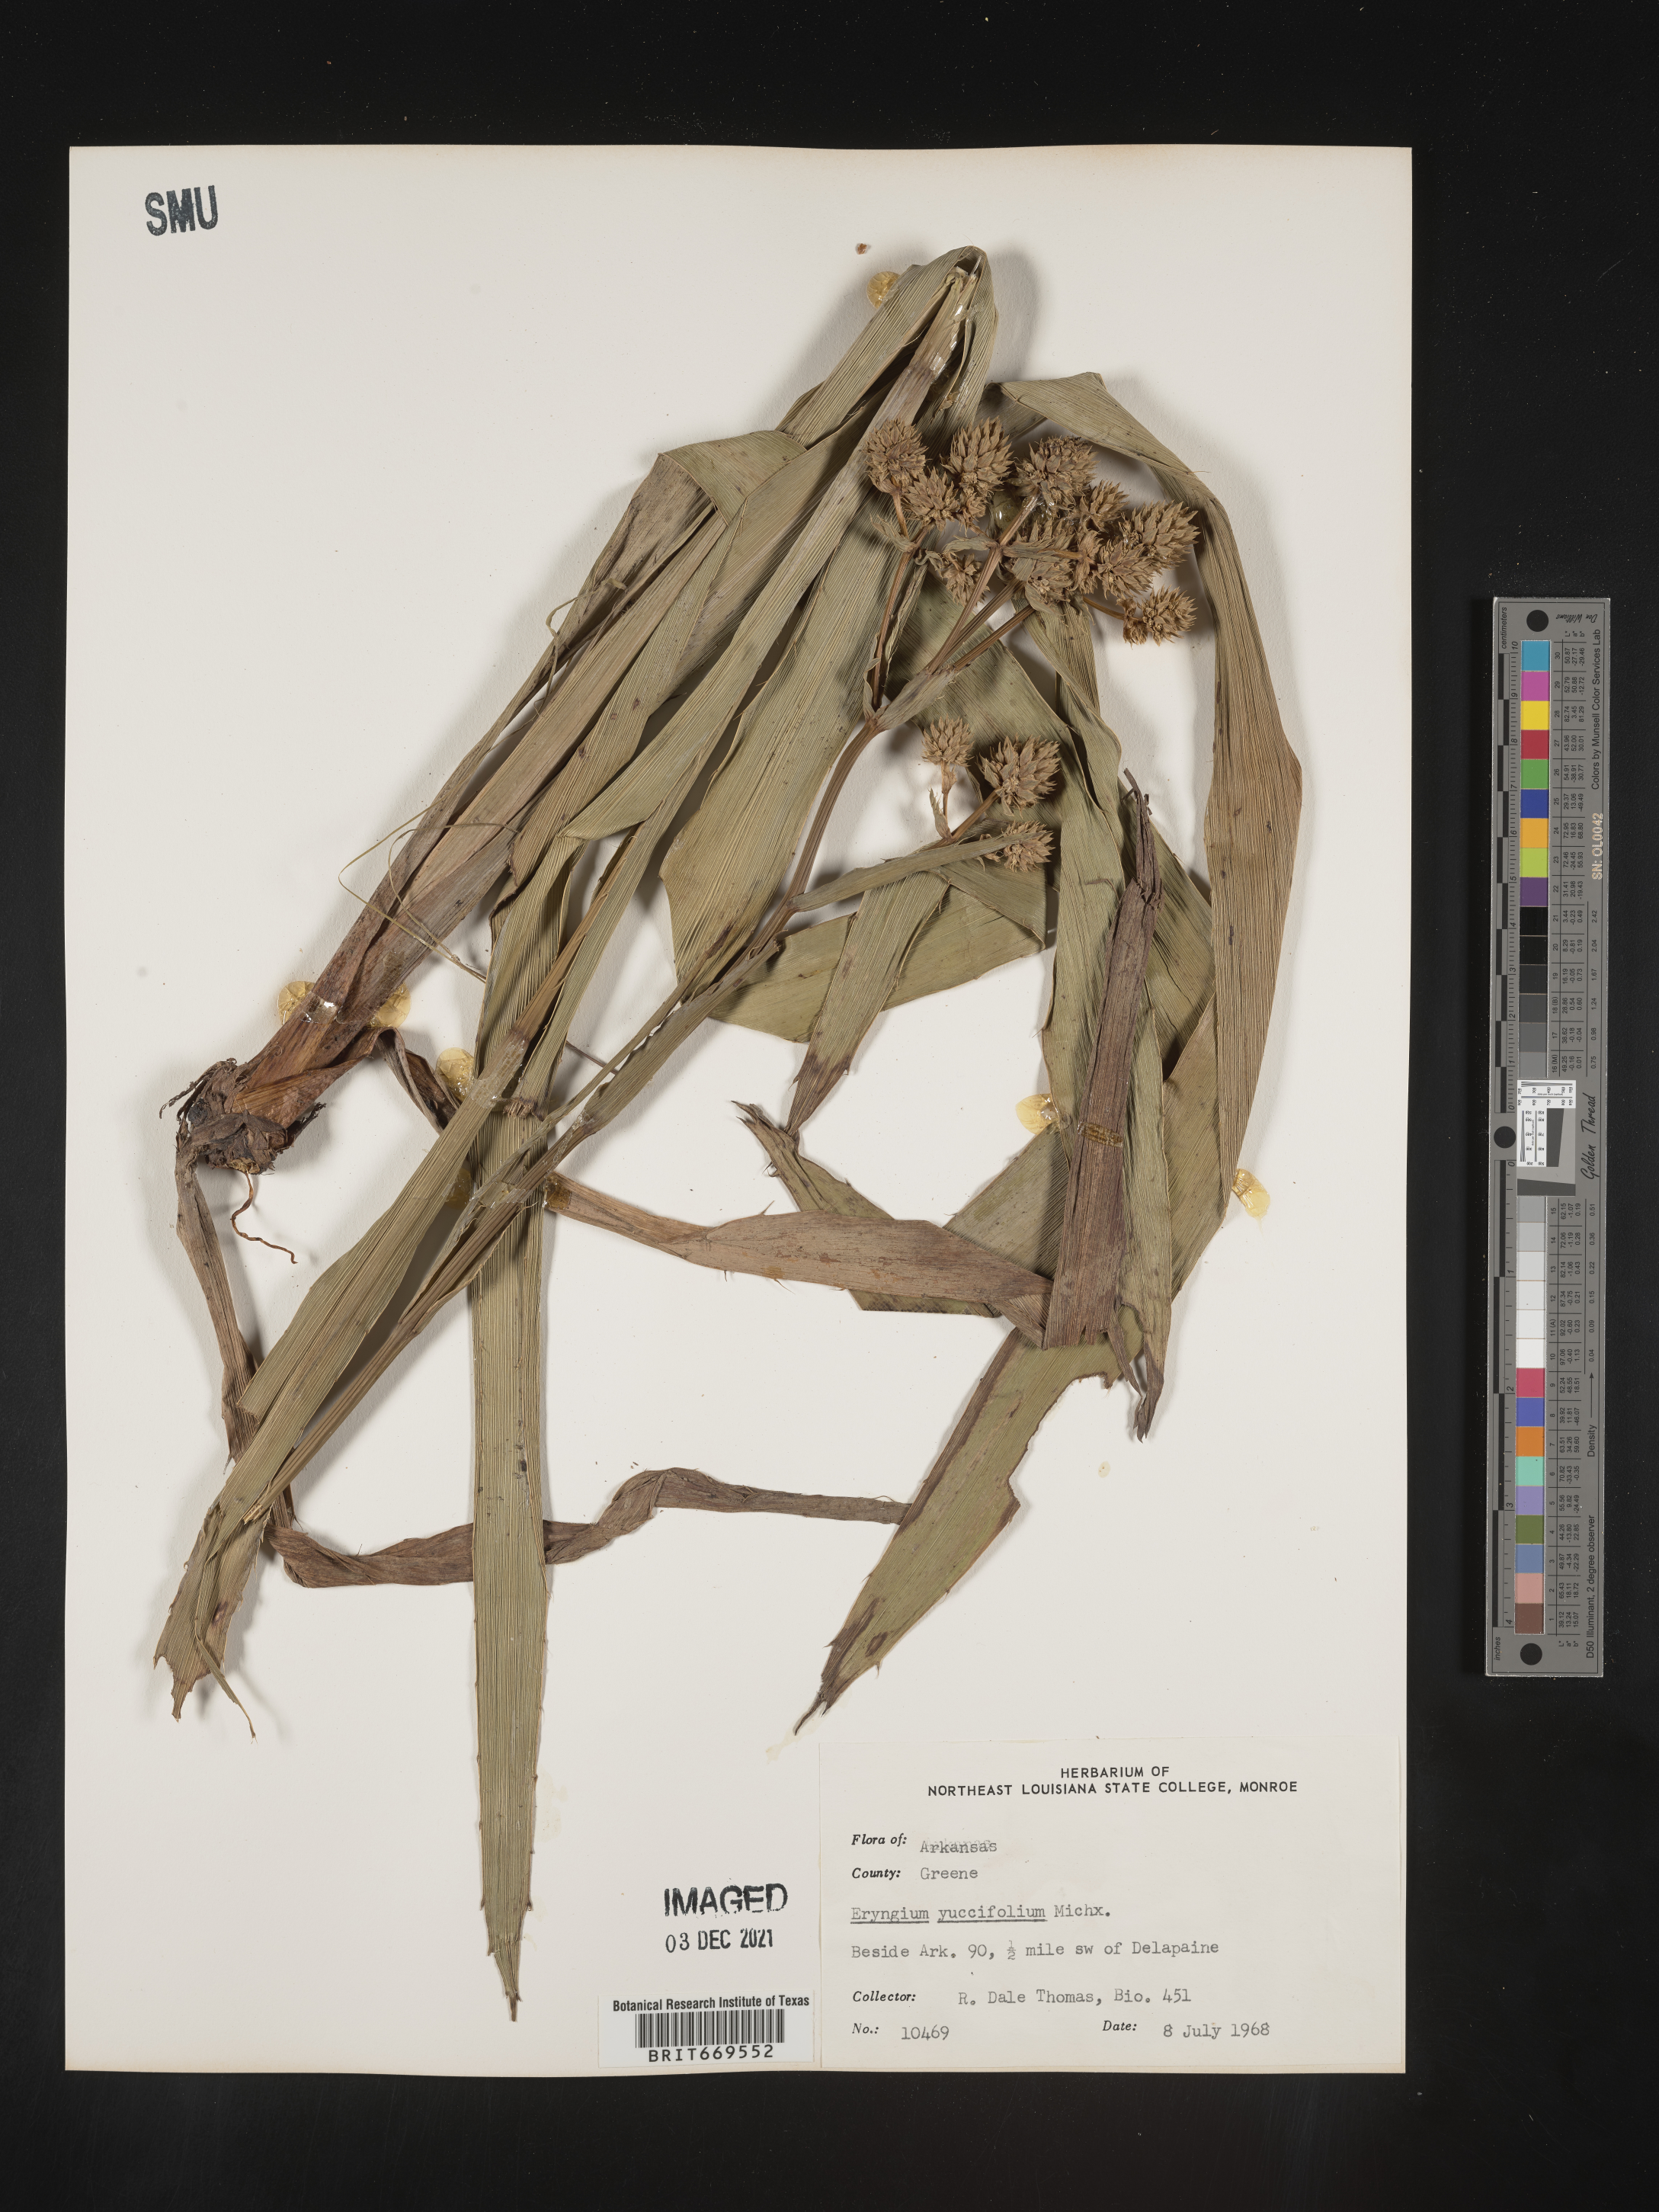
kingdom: Plantae
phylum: Tracheophyta
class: Magnoliopsida
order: Apiales
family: Apiaceae
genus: Eryngium
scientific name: Eryngium yuccifolium
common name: Button eryngo
